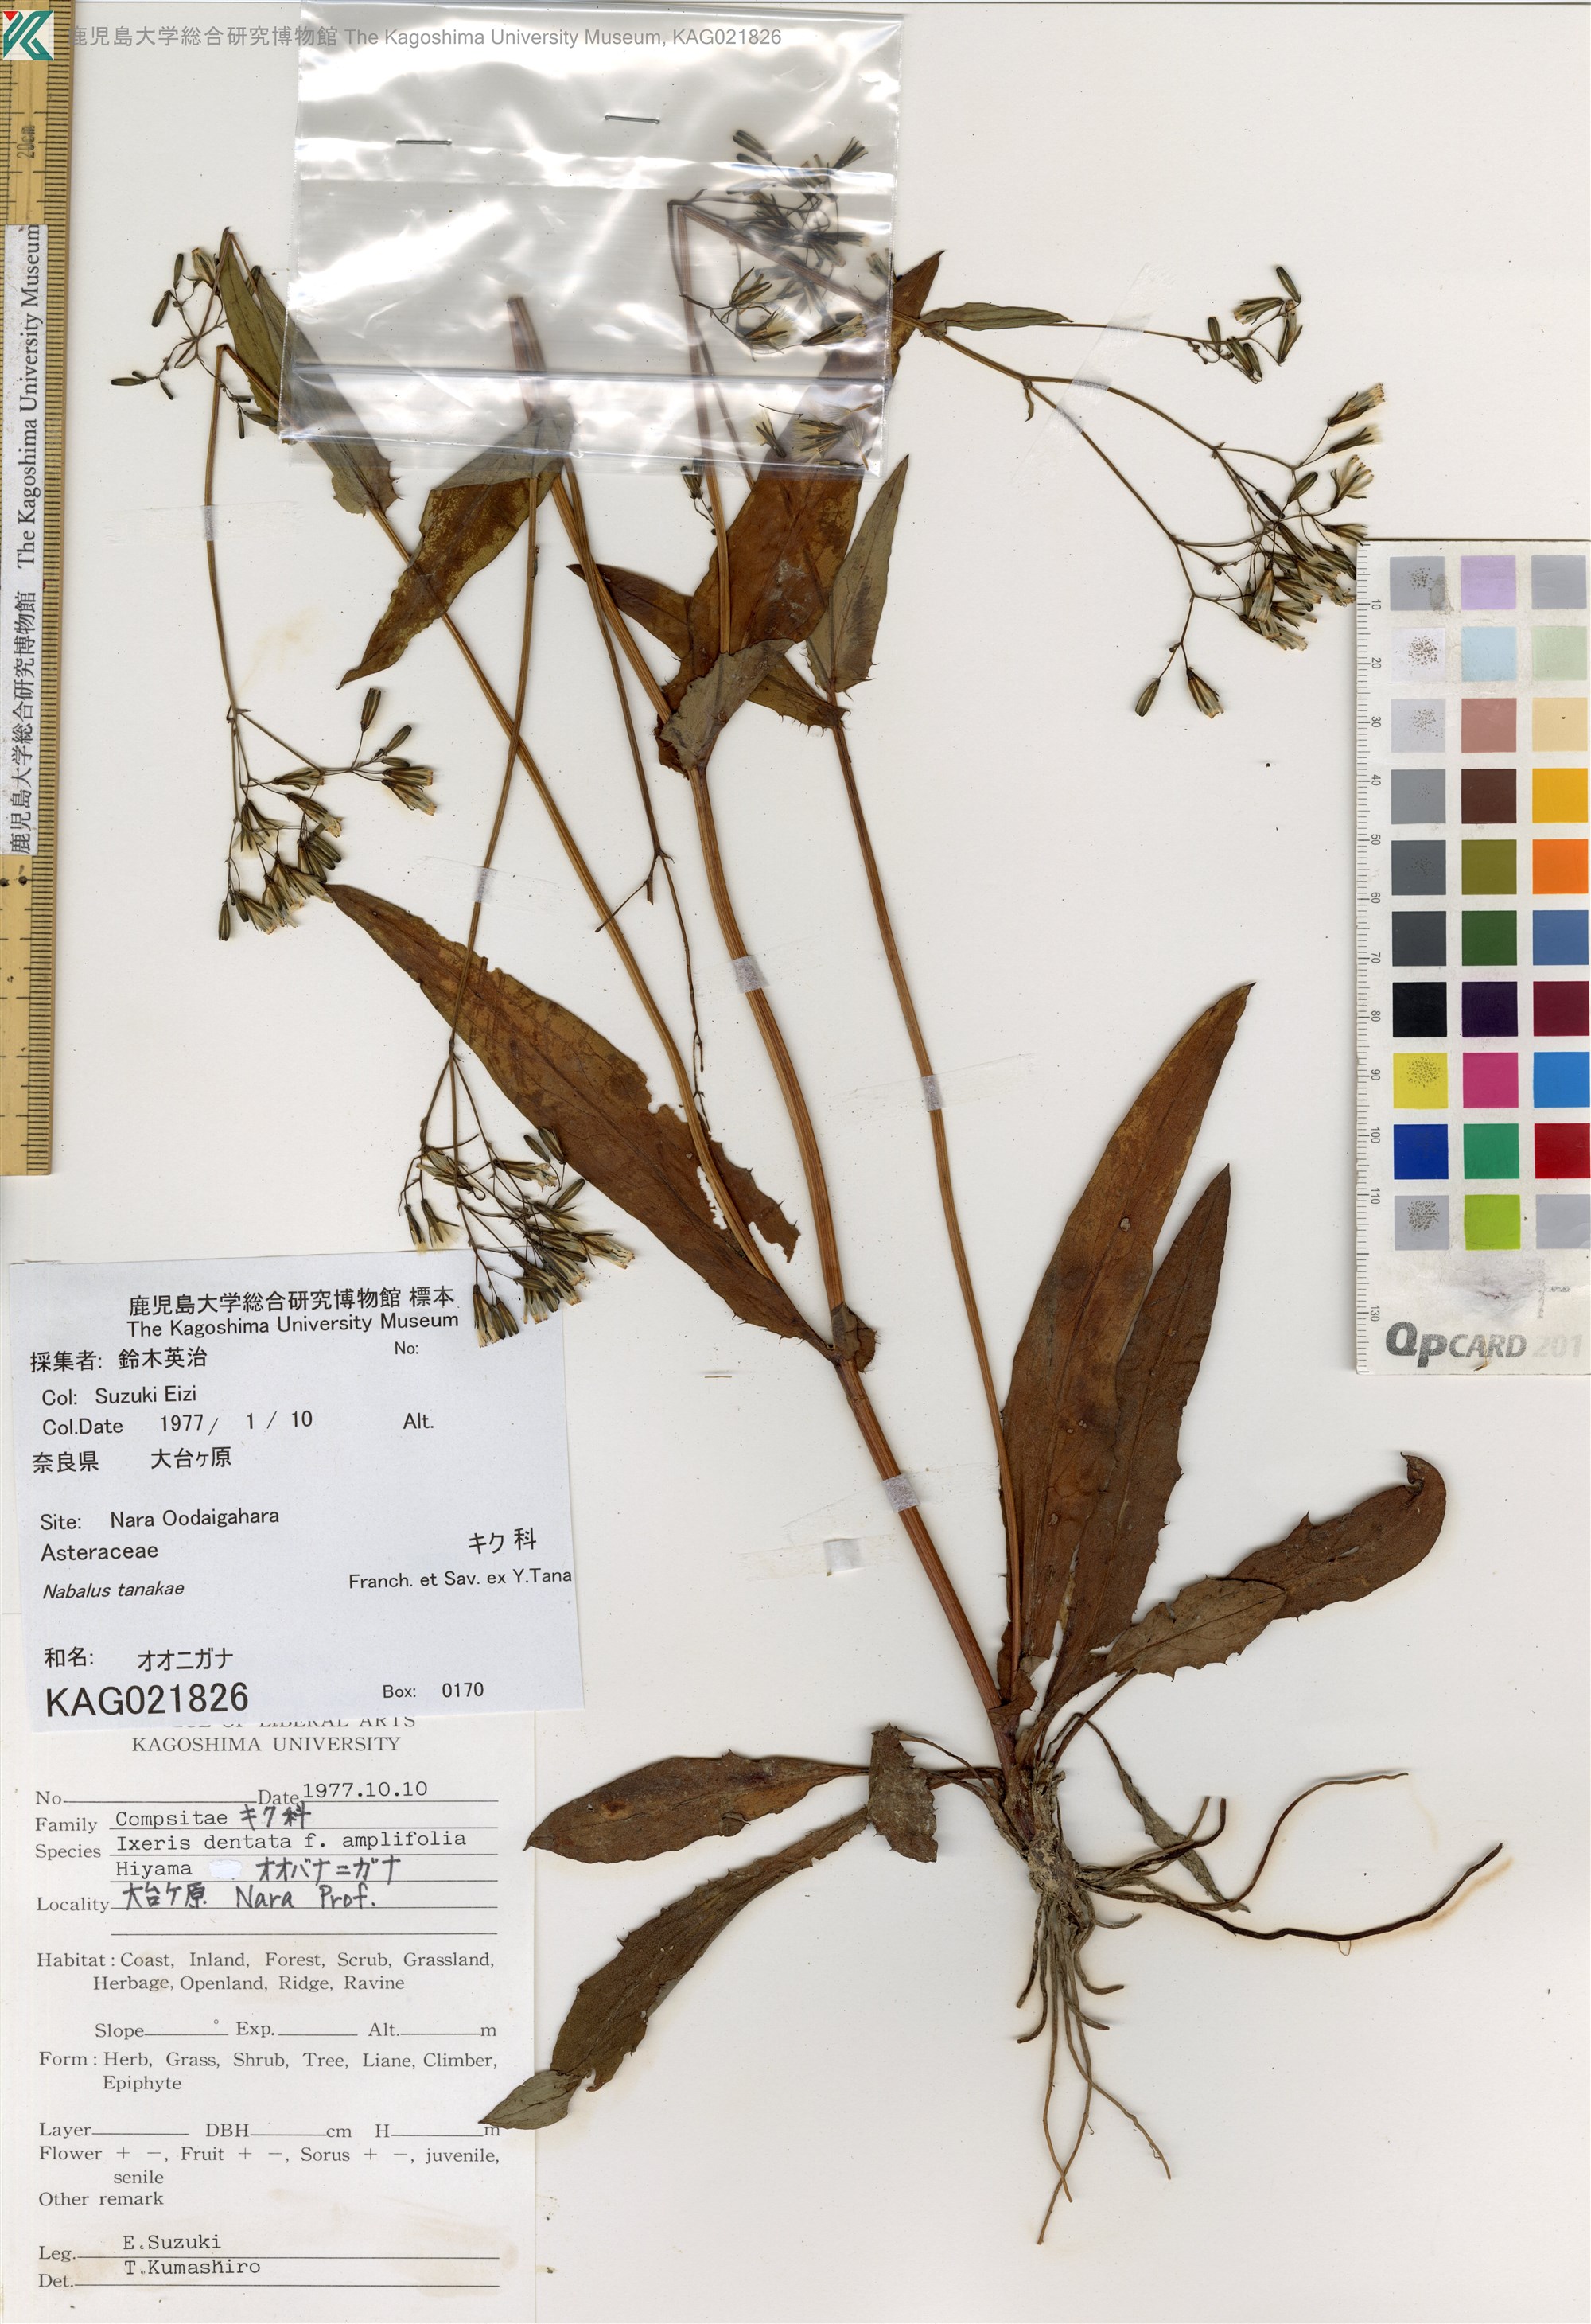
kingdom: Plantae
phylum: Tracheophyta
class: Magnoliopsida
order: Asterales
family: Asteraceae
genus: Nabalus
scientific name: Nabalus
